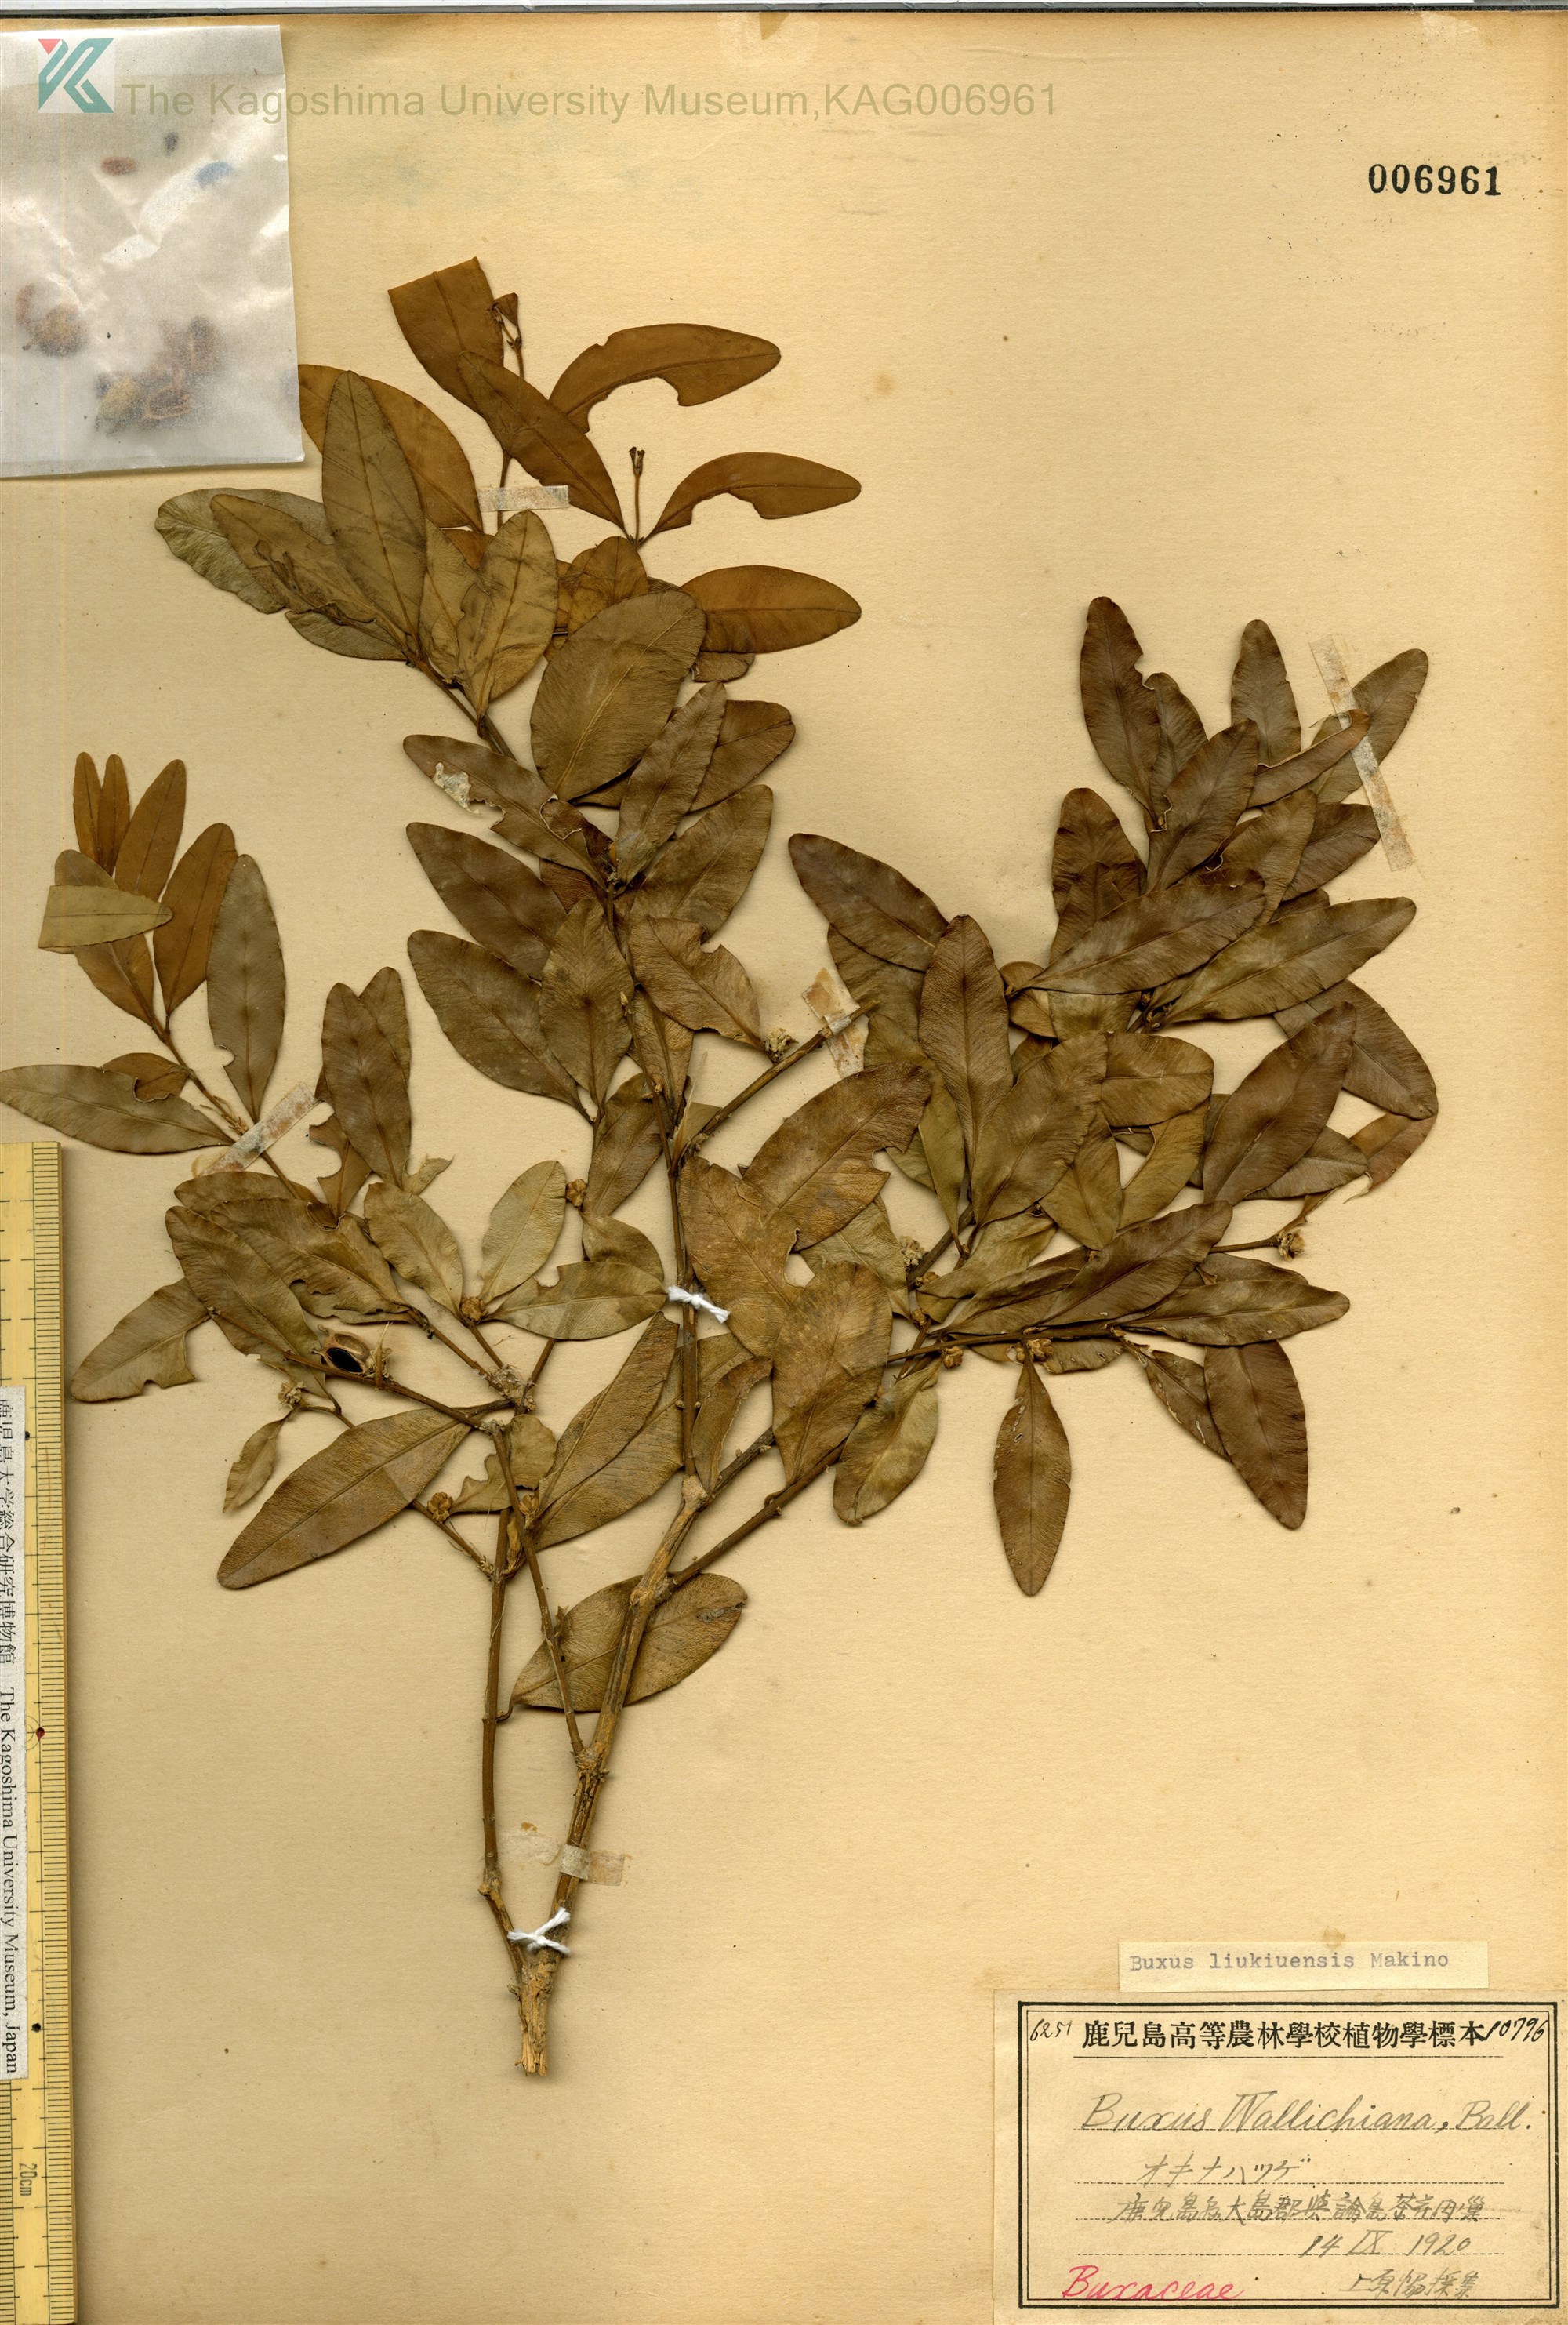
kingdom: Plantae
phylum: Tracheophyta
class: Magnoliopsida
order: Buxales
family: Buxaceae
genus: Buxus
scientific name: Buxus liukiuensis
